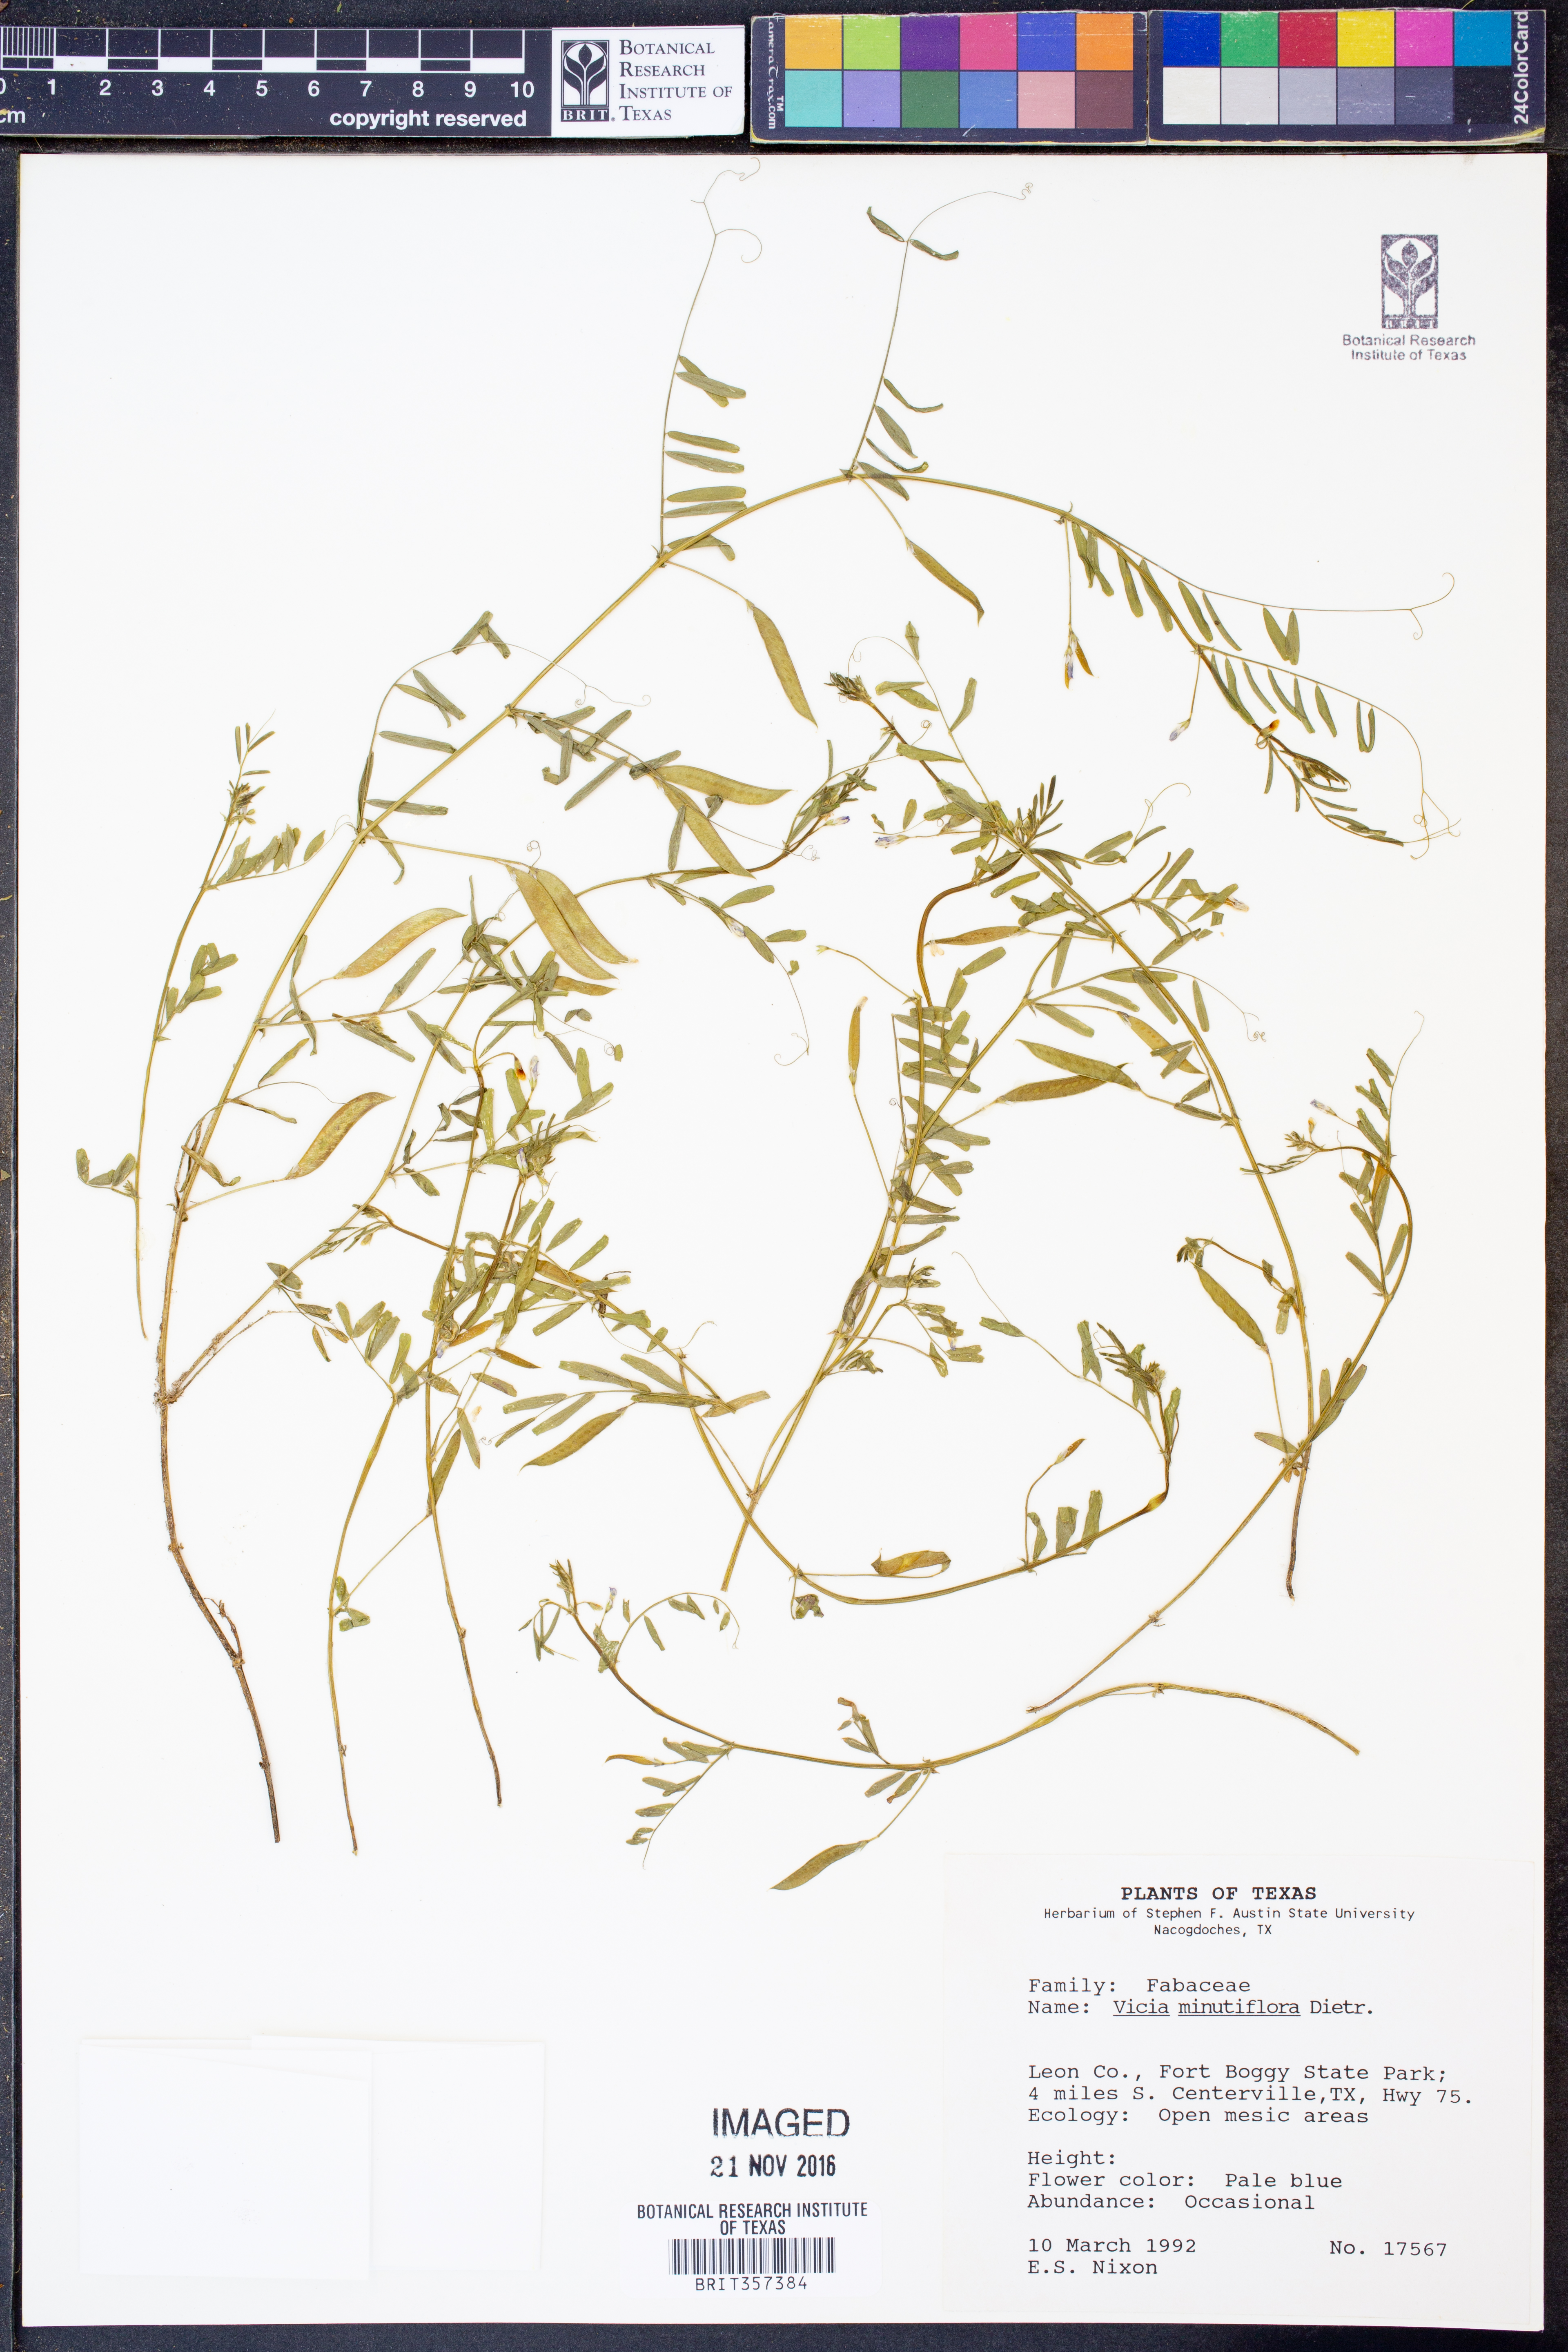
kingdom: Plantae
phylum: Tracheophyta
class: Magnoliopsida
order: Fabales
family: Fabaceae
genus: Vicia
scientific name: Vicia minutiflora
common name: Pygmy-flower vetch
